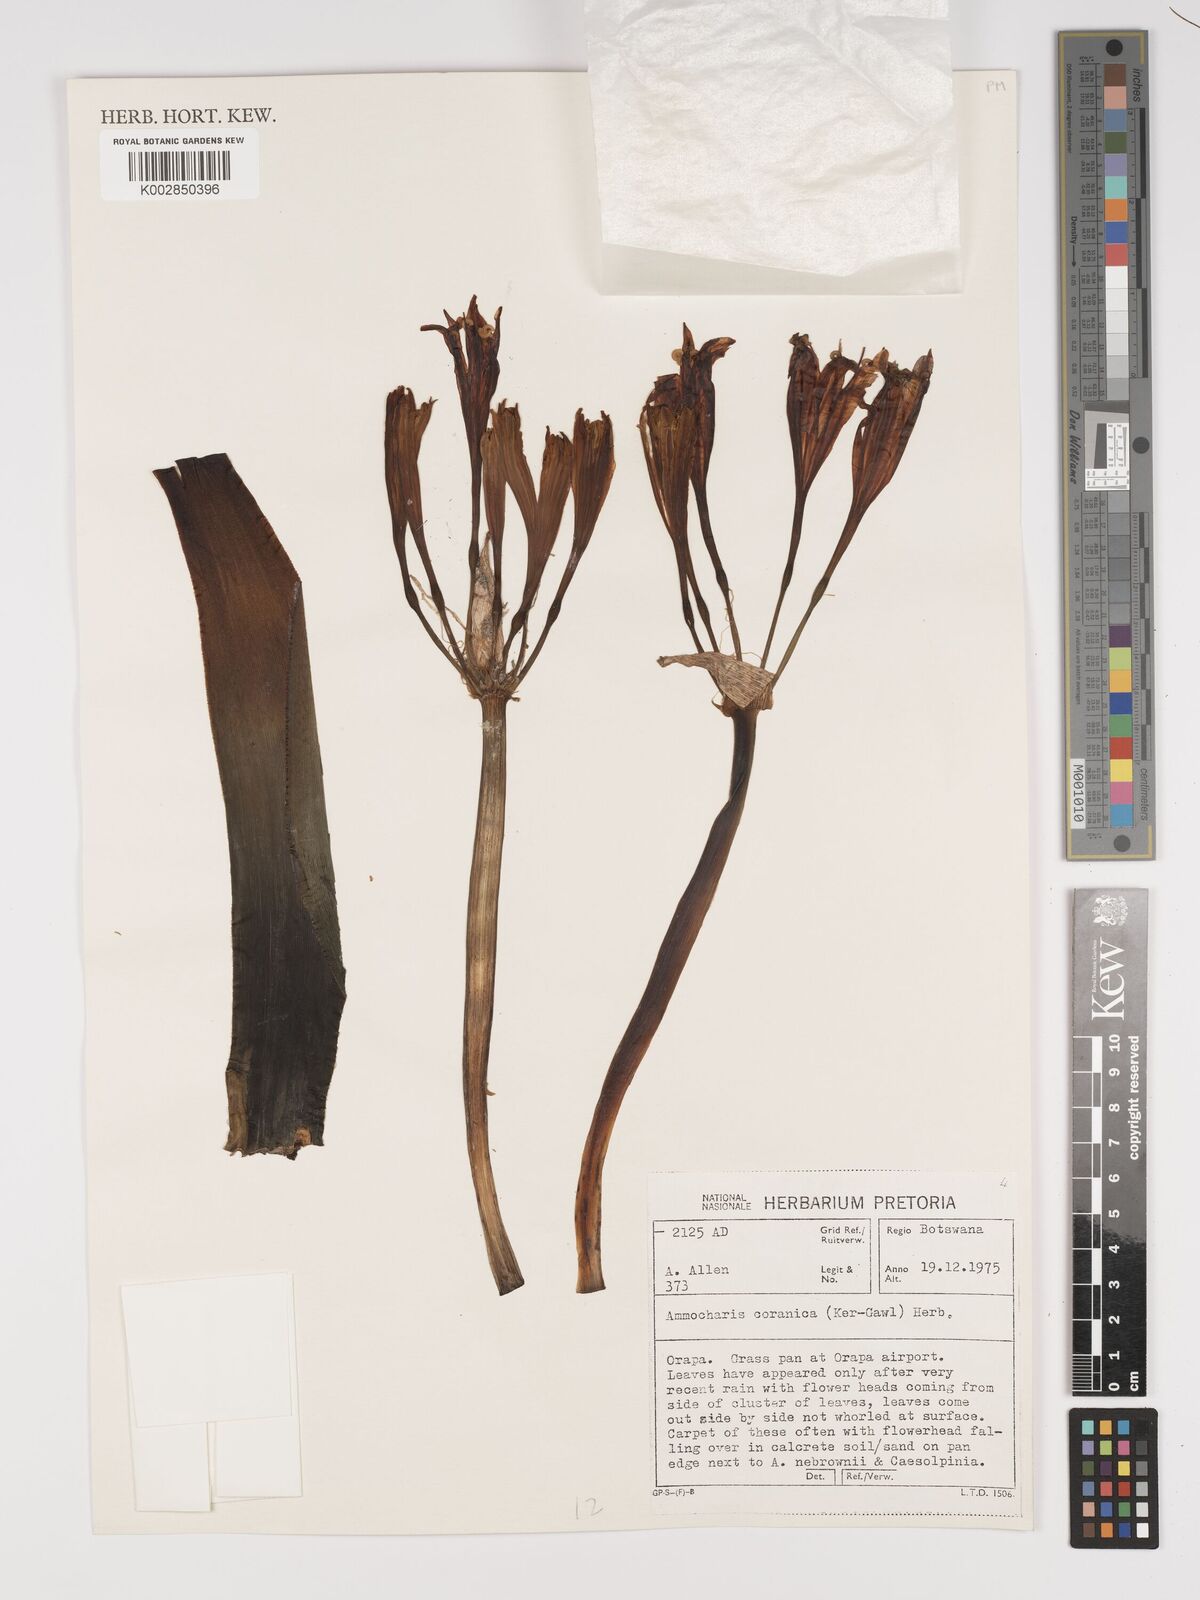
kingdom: Plantae
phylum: Tracheophyta
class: Liliopsida
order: Asparagales
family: Amaryllidaceae
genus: Ammocharis
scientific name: Ammocharis coranica
